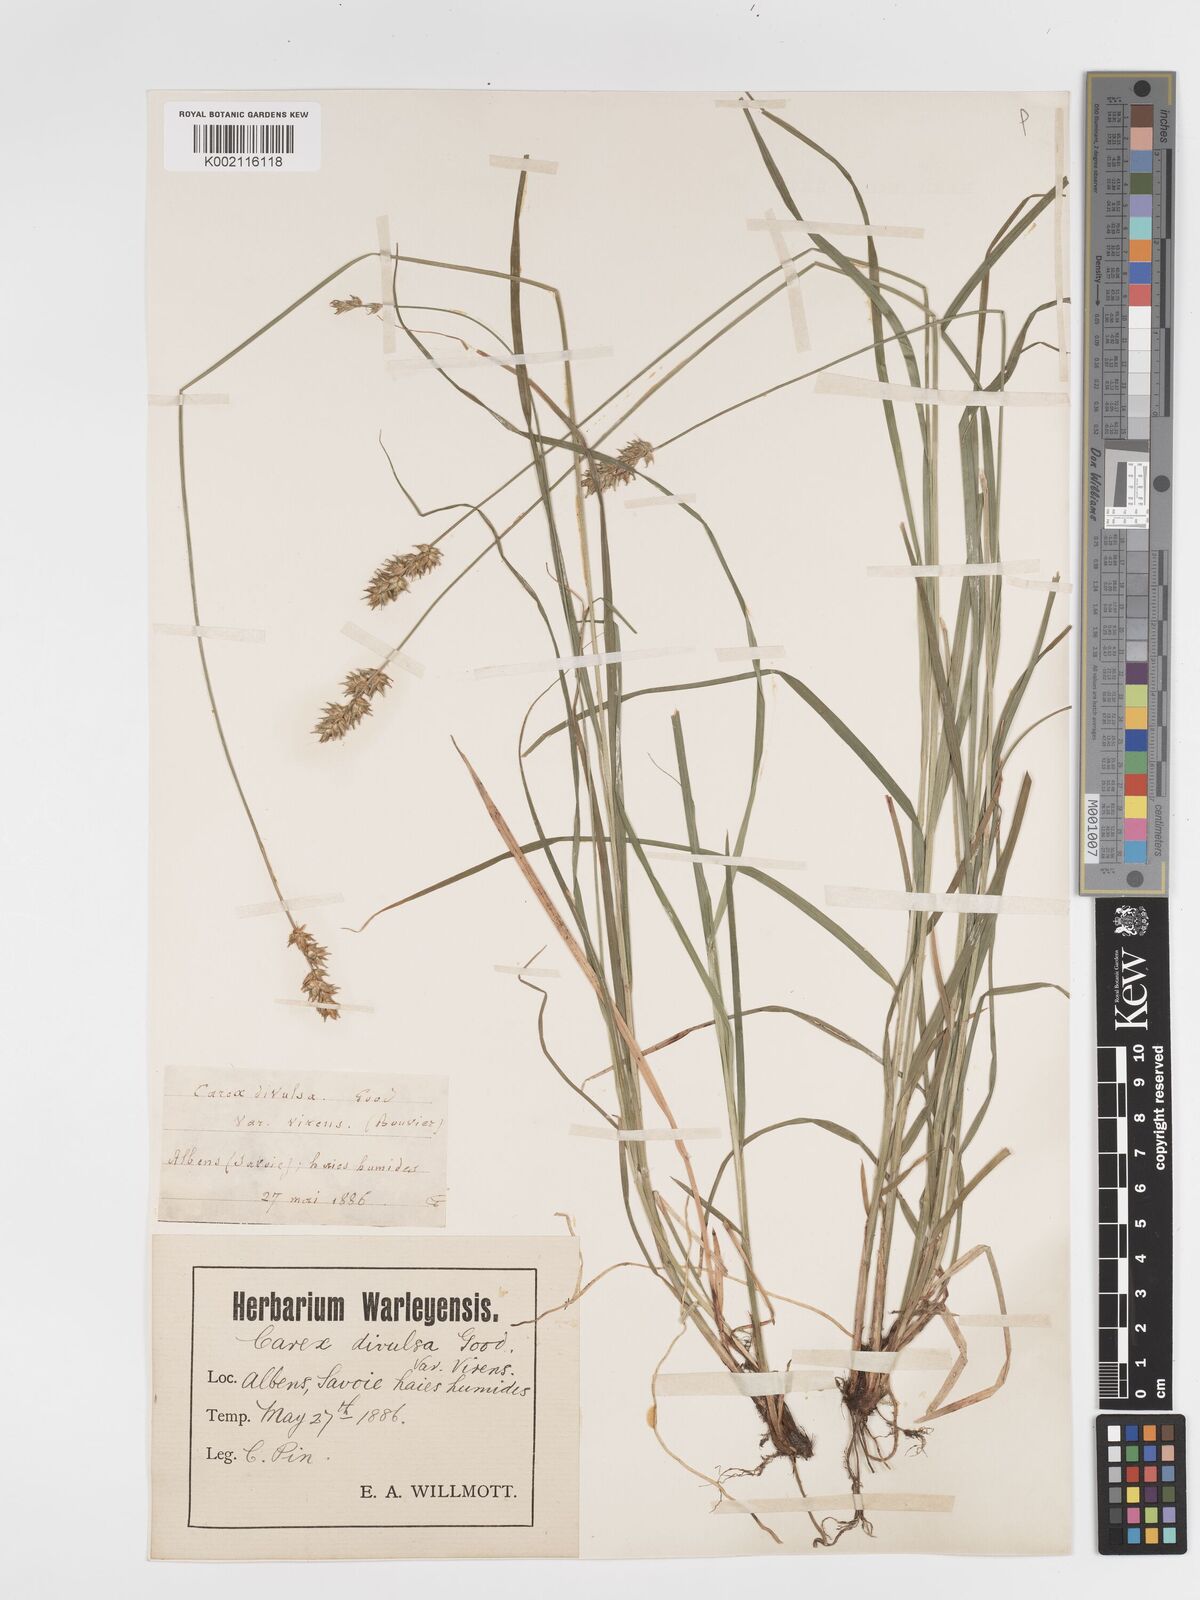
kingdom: Plantae
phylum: Tracheophyta
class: Liliopsida
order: Poales
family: Cyperaceae
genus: Carex
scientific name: Carex spicata
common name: Spiked sedge
